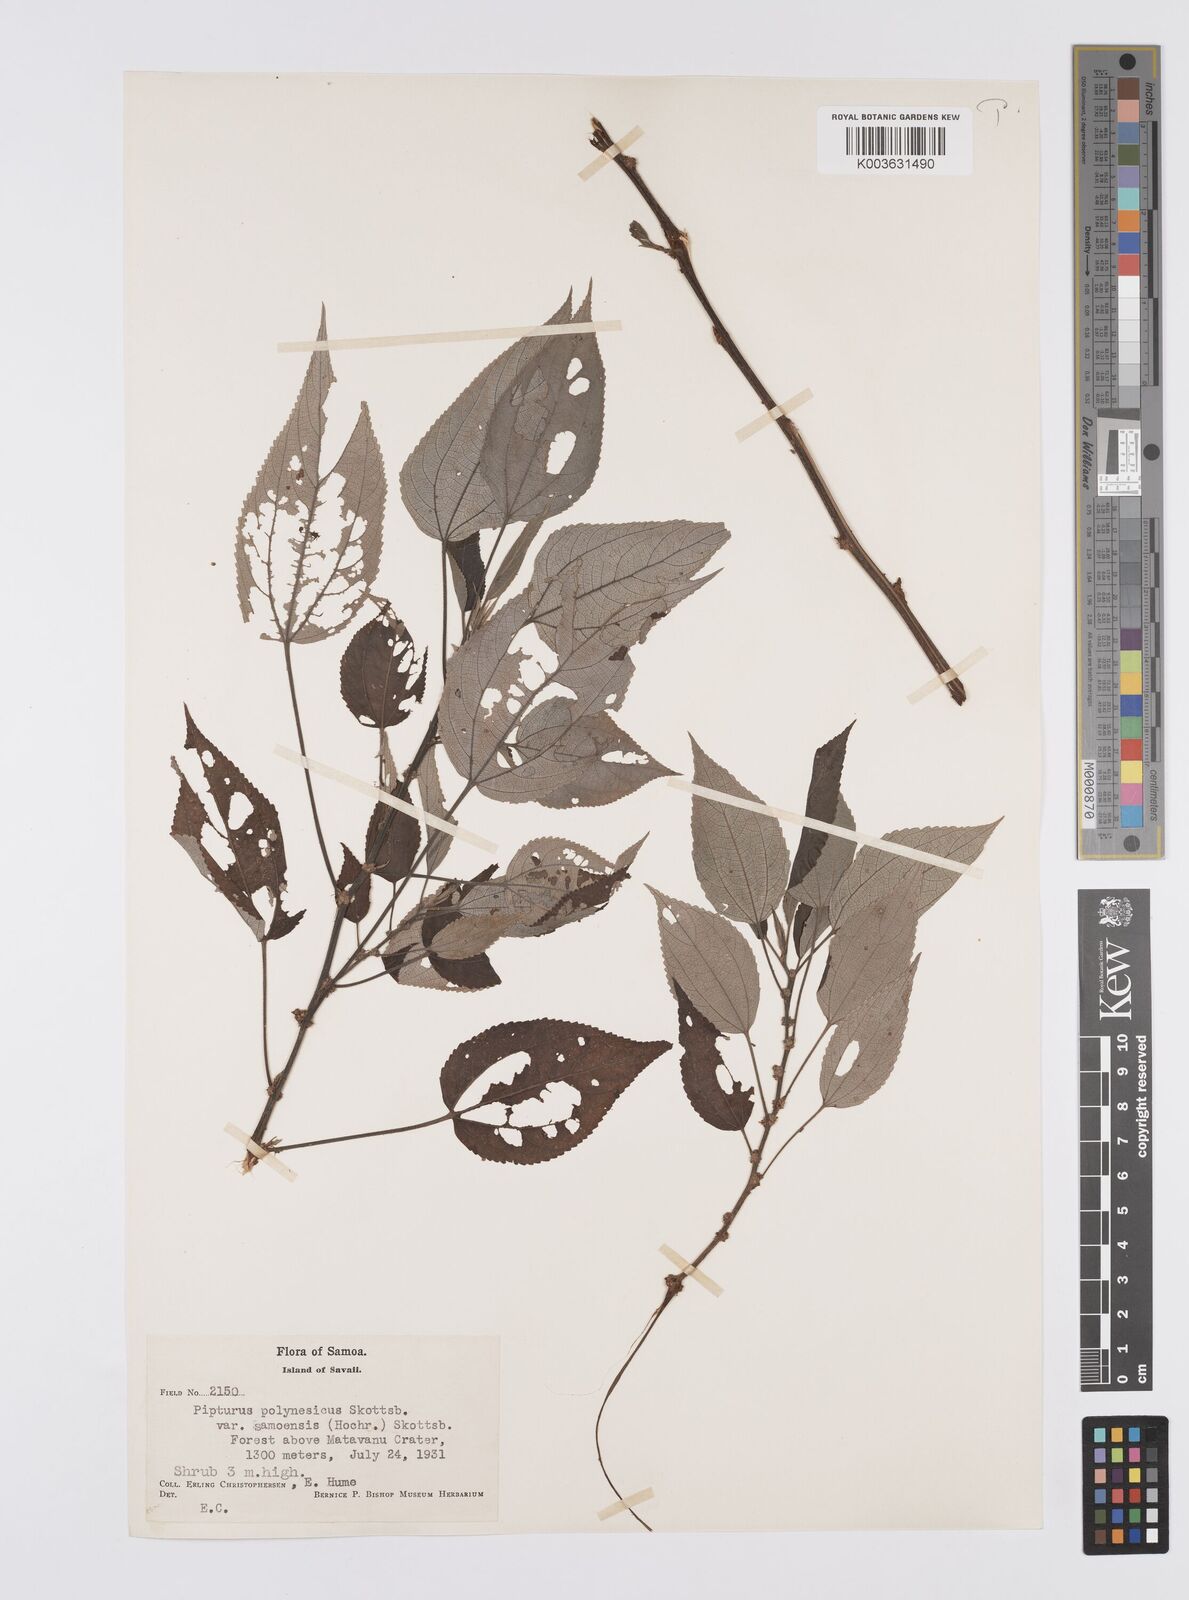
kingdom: Plantae
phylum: Tracheophyta
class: Magnoliopsida
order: Rosales
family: Urticaceae
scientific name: Urticaceae
